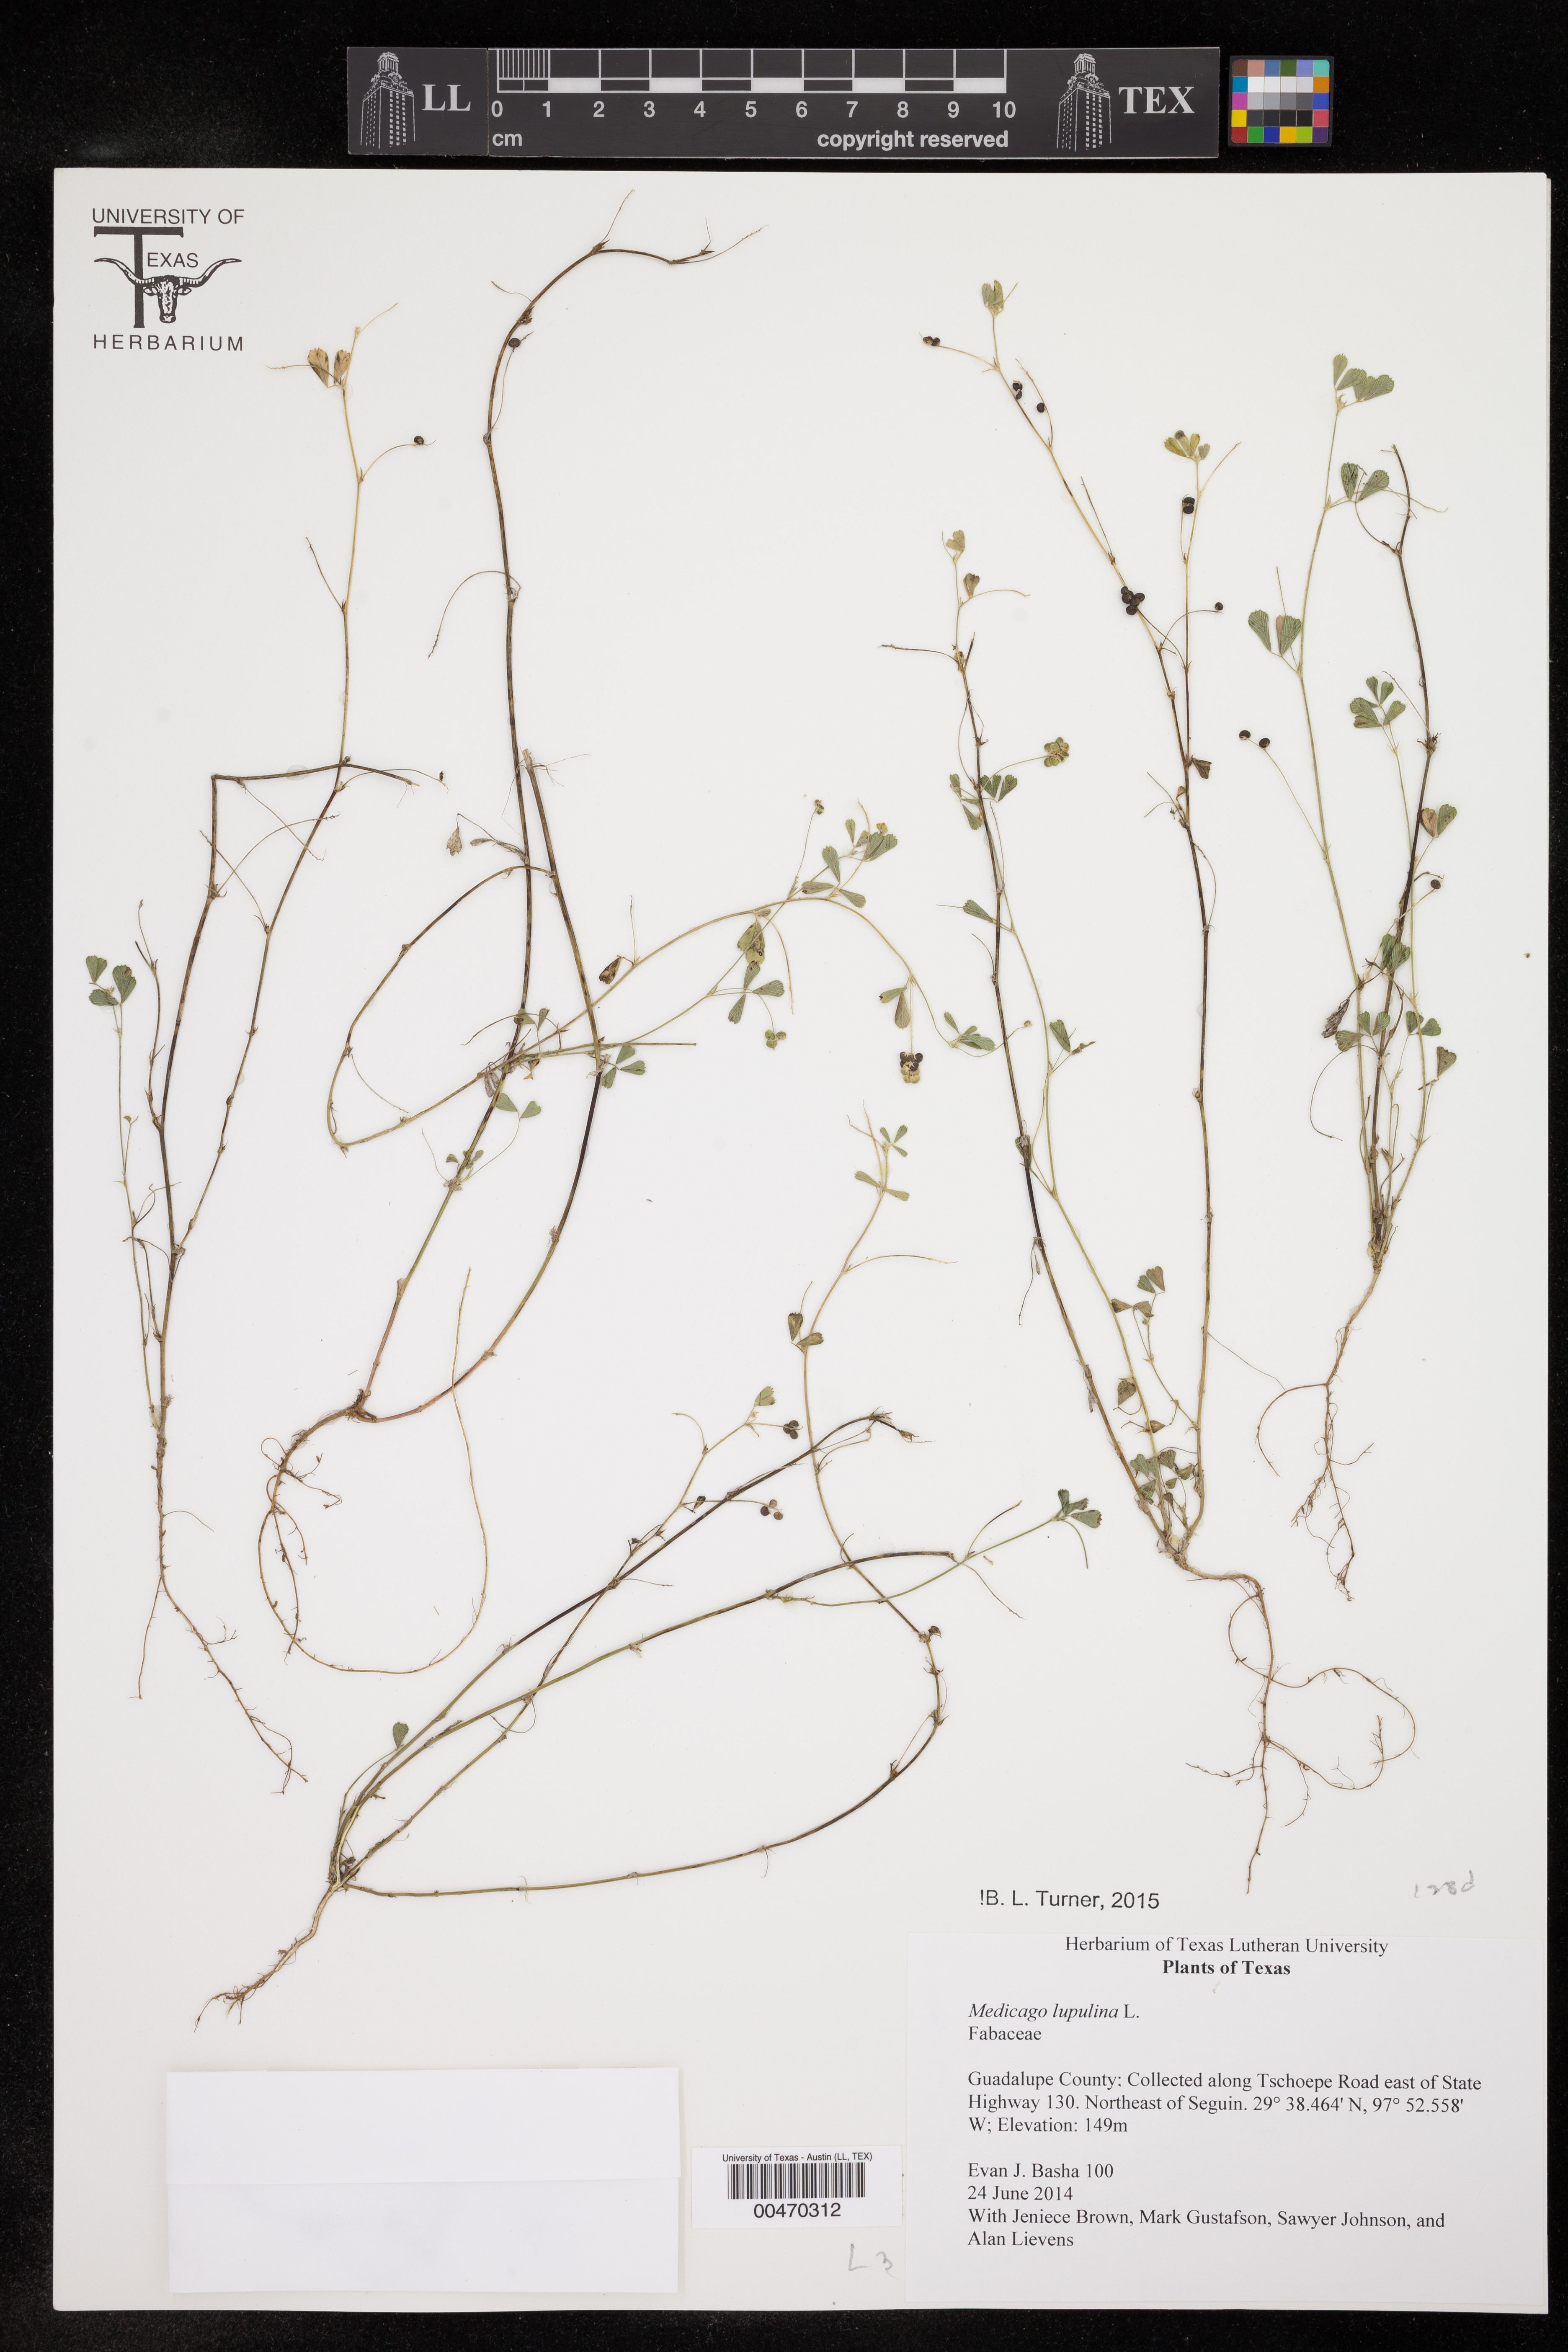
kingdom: Plantae
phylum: Tracheophyta
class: Magnoliopsida
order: Fabales
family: Fabaceae
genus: Medicago
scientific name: Medicago lupulina
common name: Black medick
